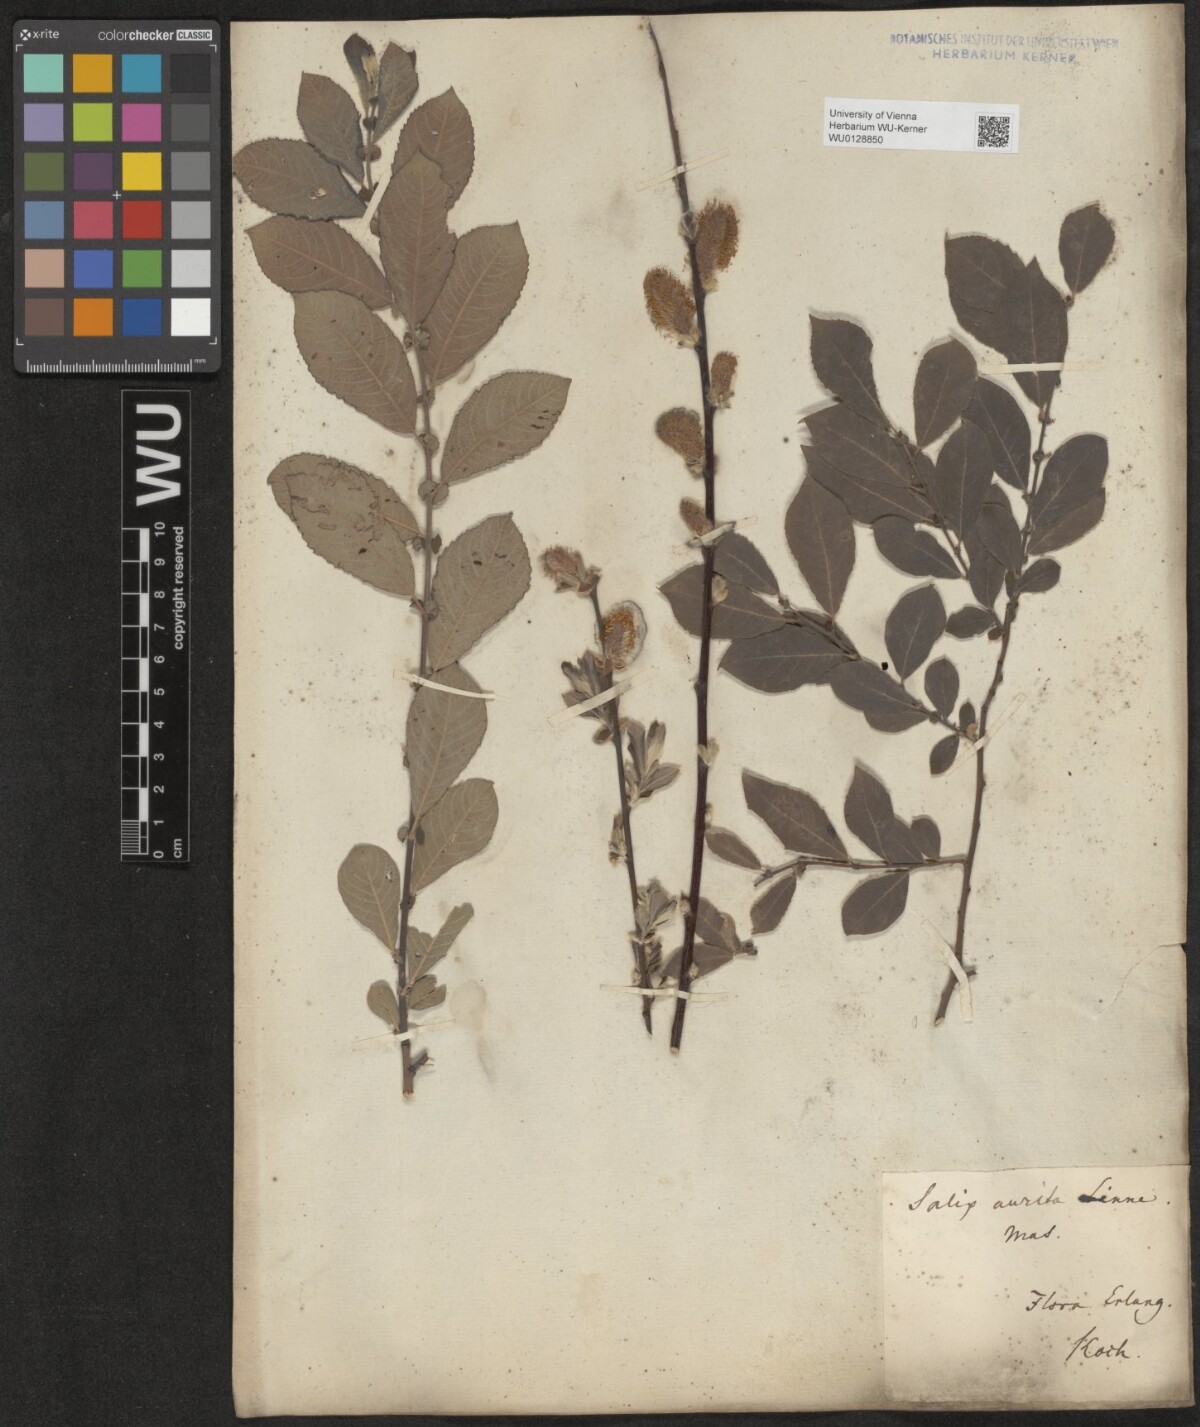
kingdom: Plantae
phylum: Tracheophyta
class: Magnoliopsida
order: Malpighiales
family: Salicaceae
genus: Salix
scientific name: Salix aurita
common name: Eared willow
